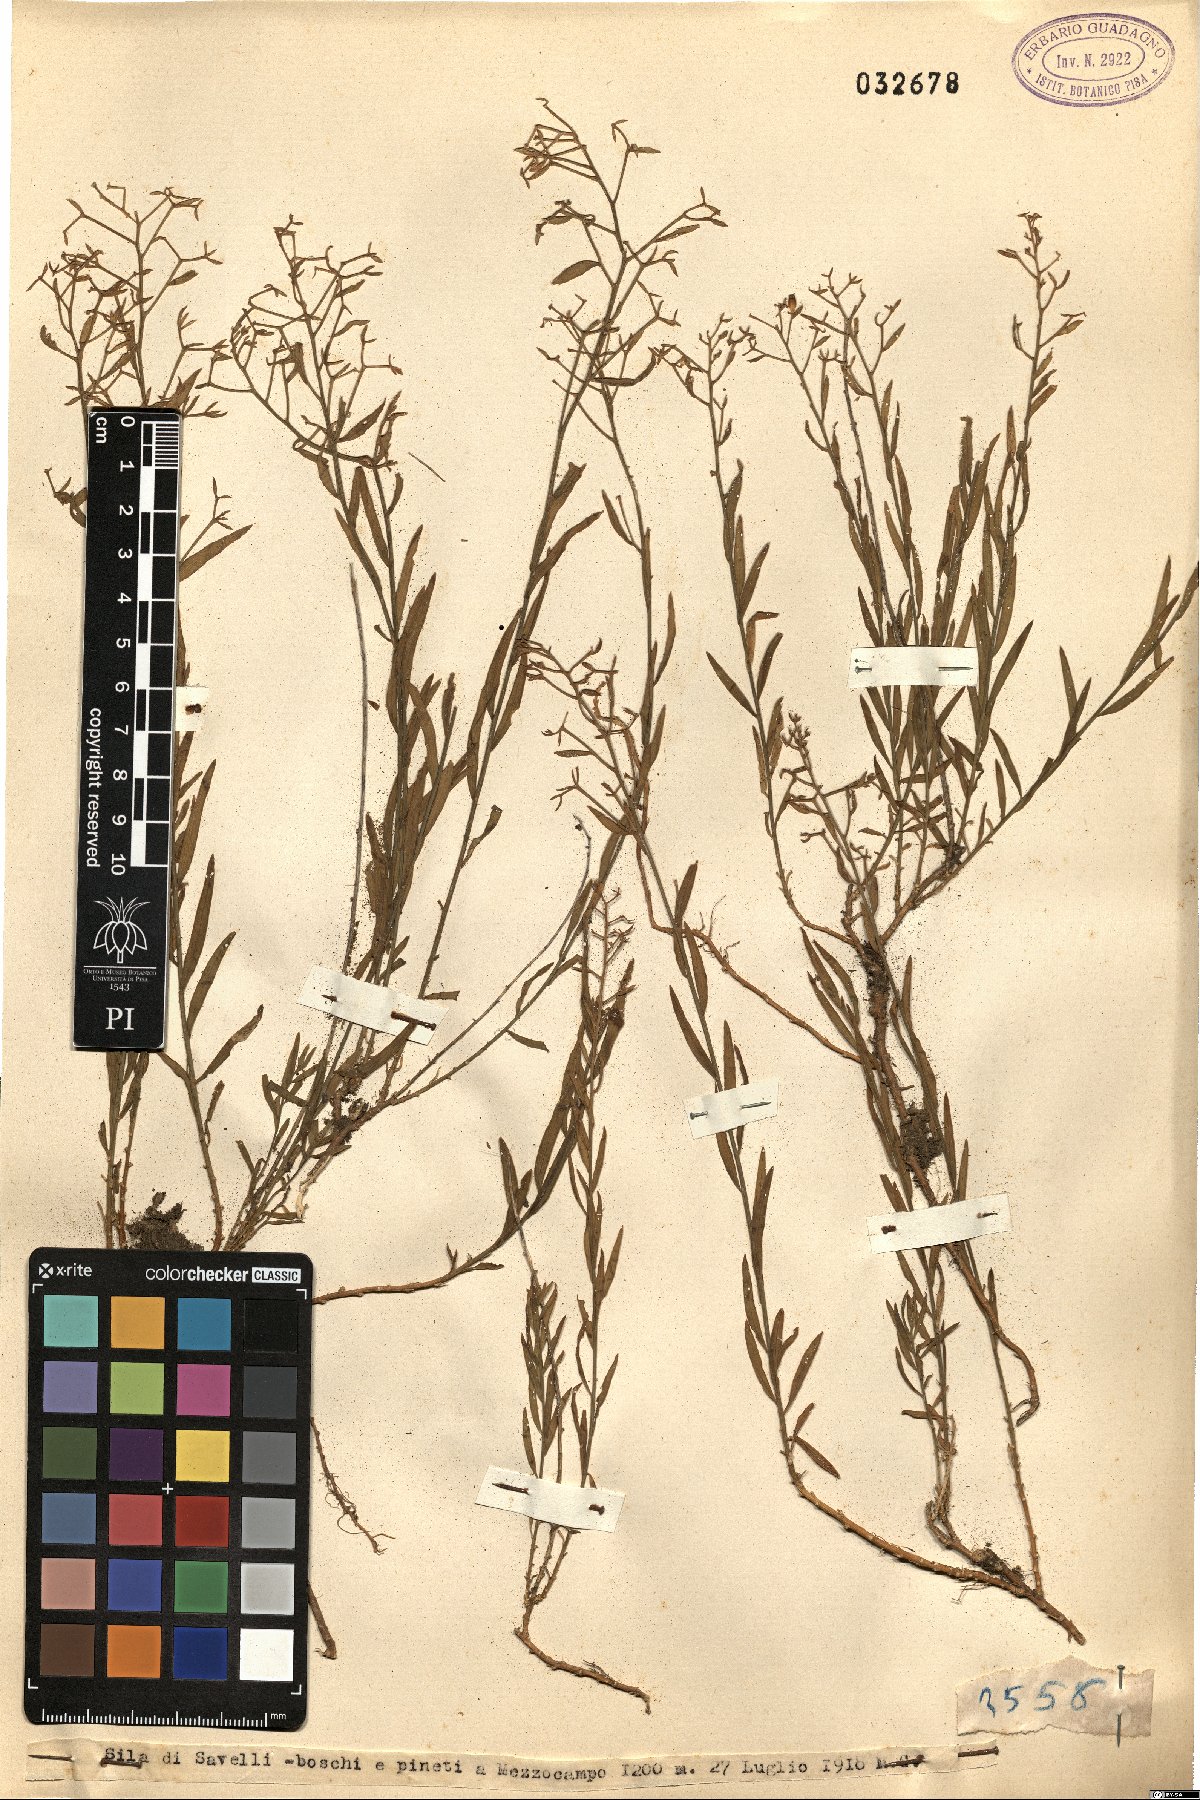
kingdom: Plantae
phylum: Tracheophyta
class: Magnoliopsida
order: Santalales
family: Thesiaceae
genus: Thesium
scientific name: Thesium
